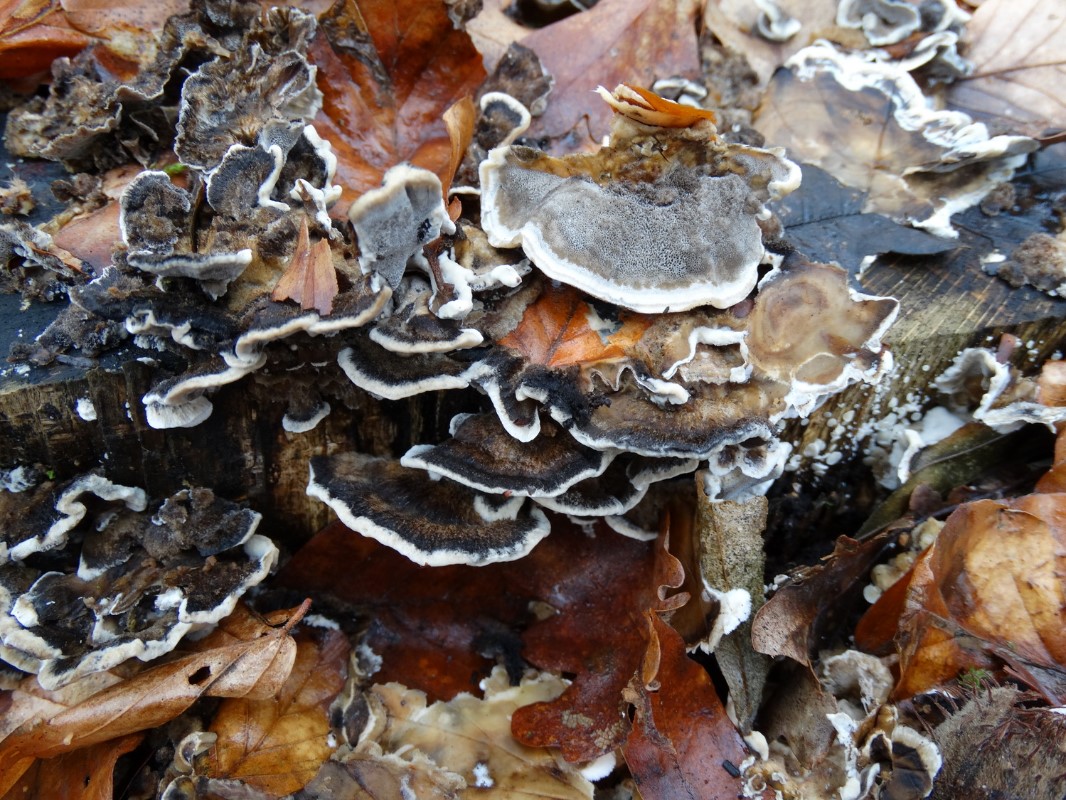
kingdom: Fungi
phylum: Basidiomycota
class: Agaricomycetes
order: Polyporales
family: Phanerochaetaceae
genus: Bjerkandera
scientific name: Bjerkandera adusta
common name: sveden sodporesvamp
